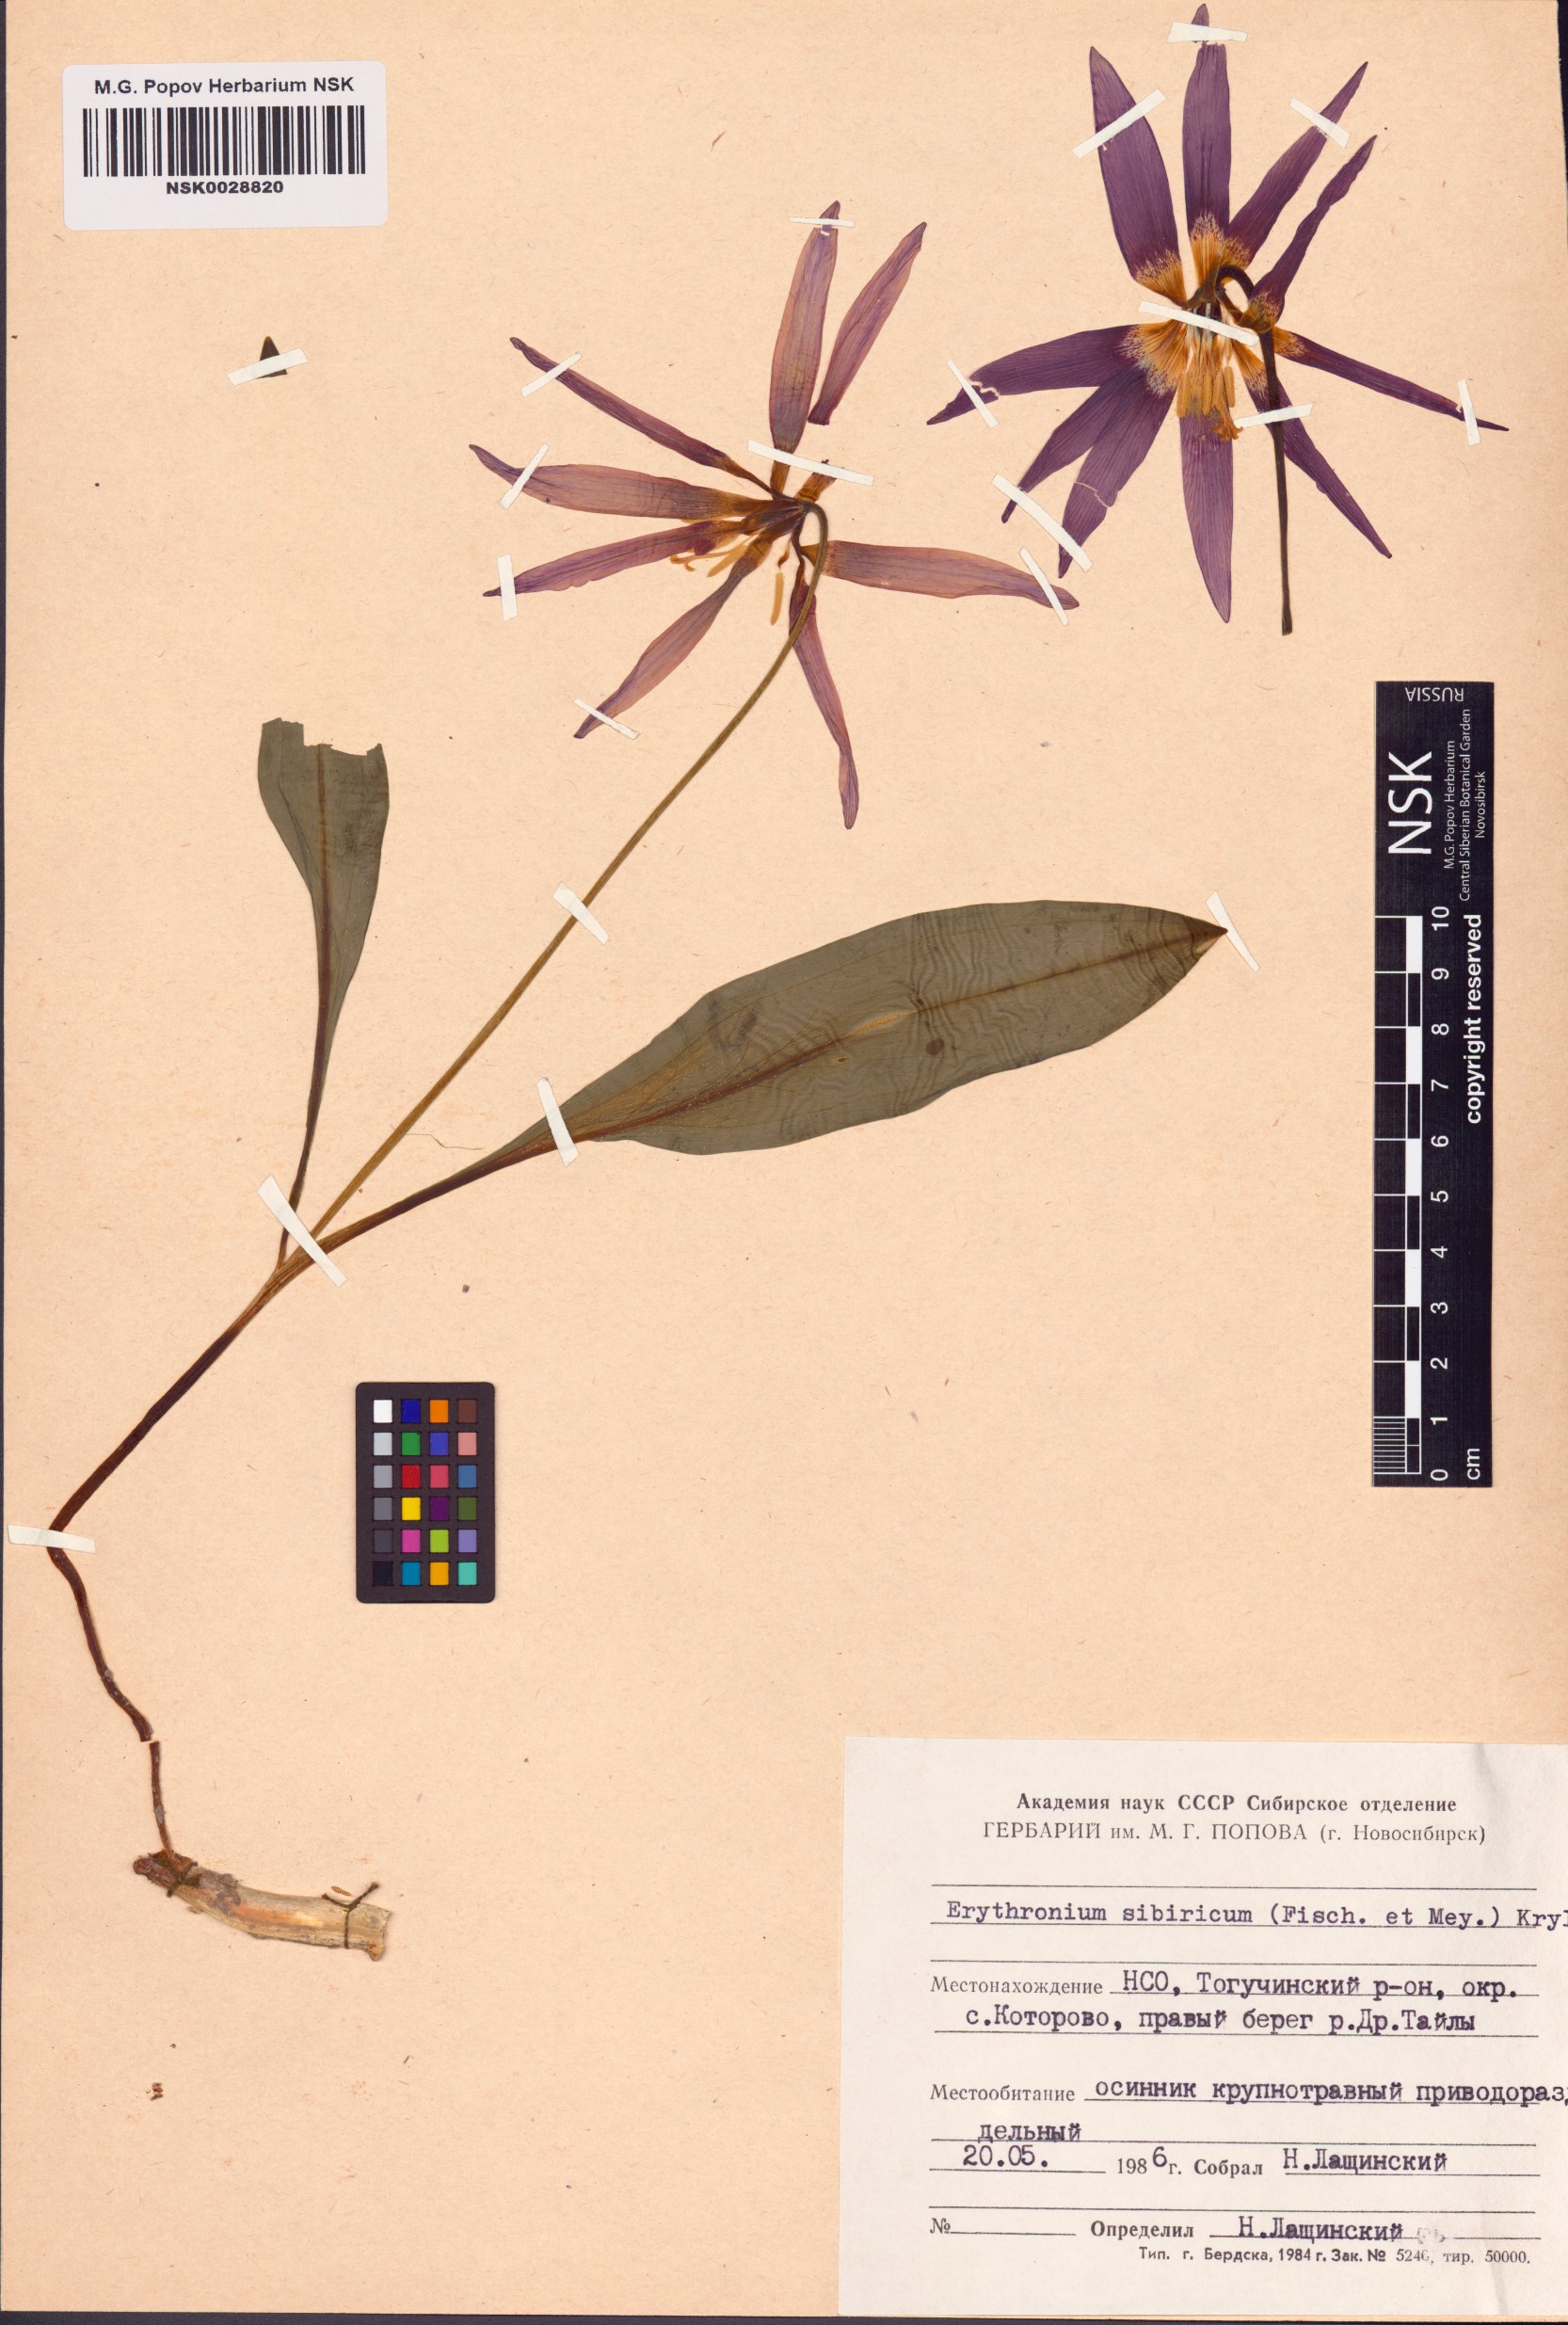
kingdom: Plantae
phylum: Tracheophyta
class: Liliopsida
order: Liliales
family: Liliaceae
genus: Erythronium
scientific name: Erythronium sibiricum
